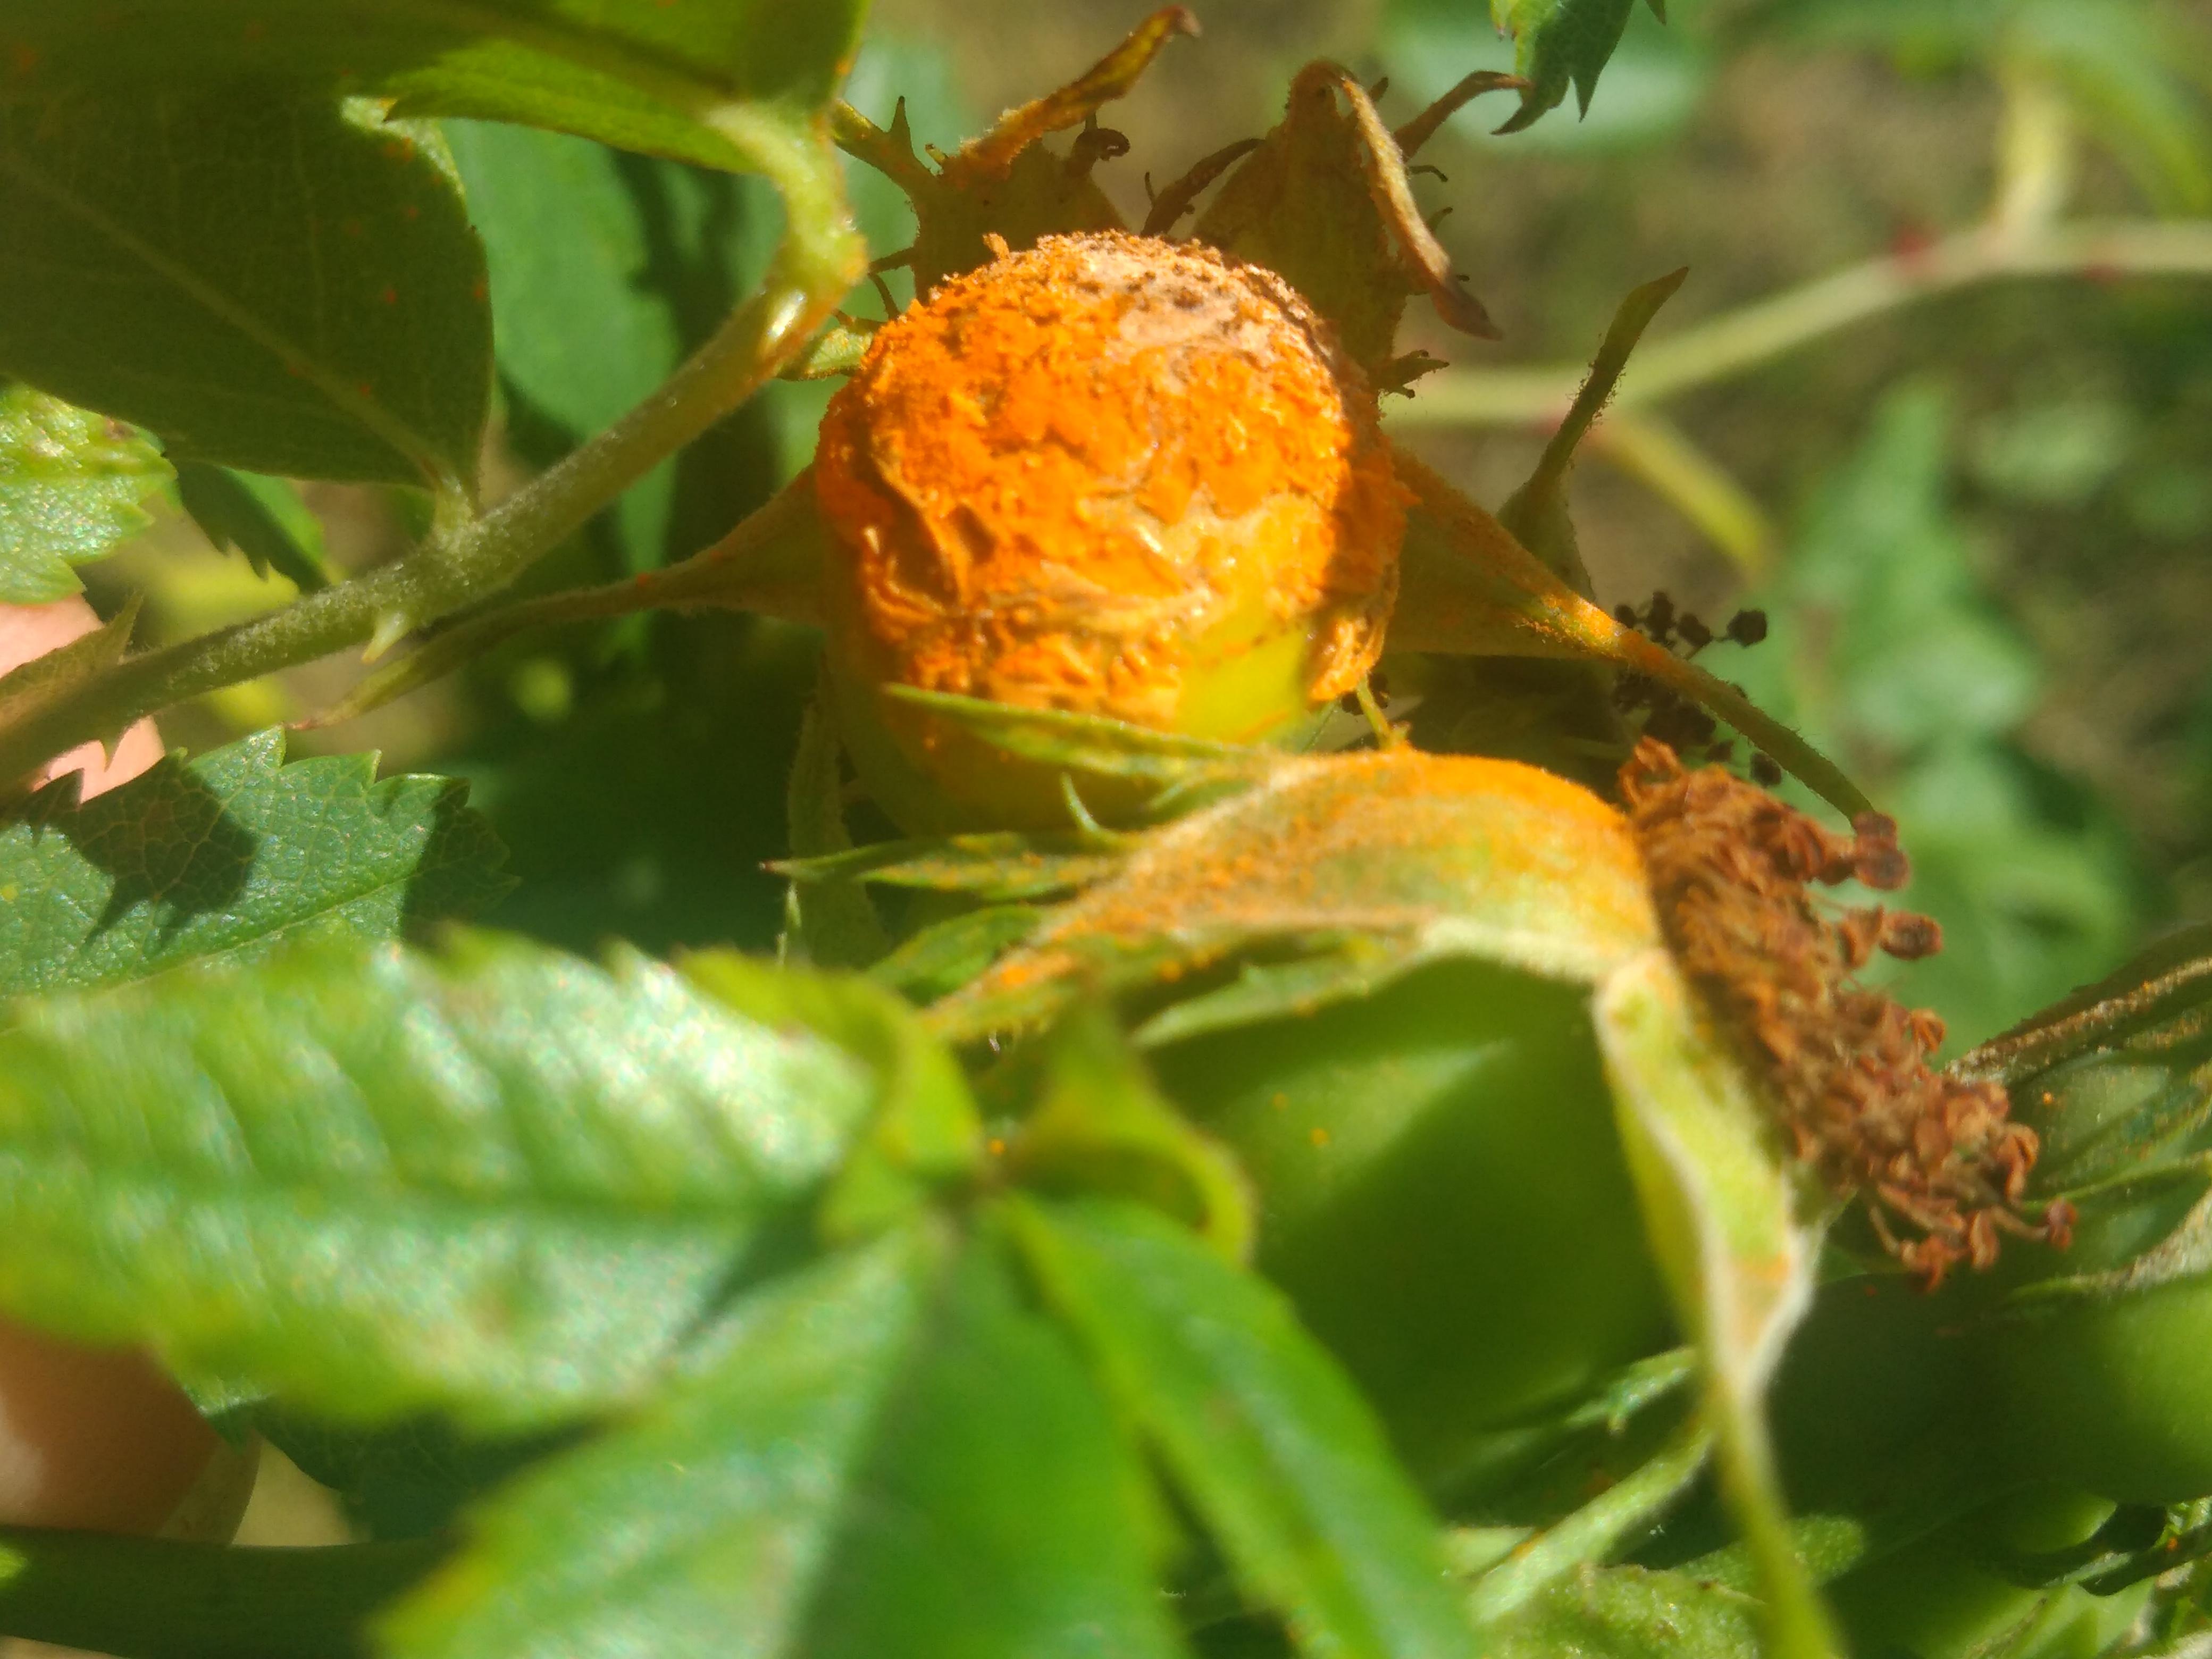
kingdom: Fungi
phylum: Basidiomycota
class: Pucciniomycetes
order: Pucciniales
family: Phragmidiaceae
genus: Phragmidium
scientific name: Phragmidium
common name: flercellerust
